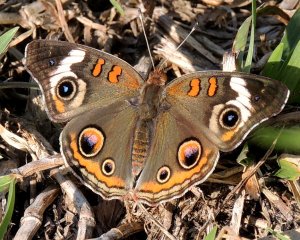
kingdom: Animalia
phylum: Arthropoda
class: Insecta
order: Lepidoptera
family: Nymphalidae
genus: Junonia
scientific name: Junonia coenia
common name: Common Buckeye
